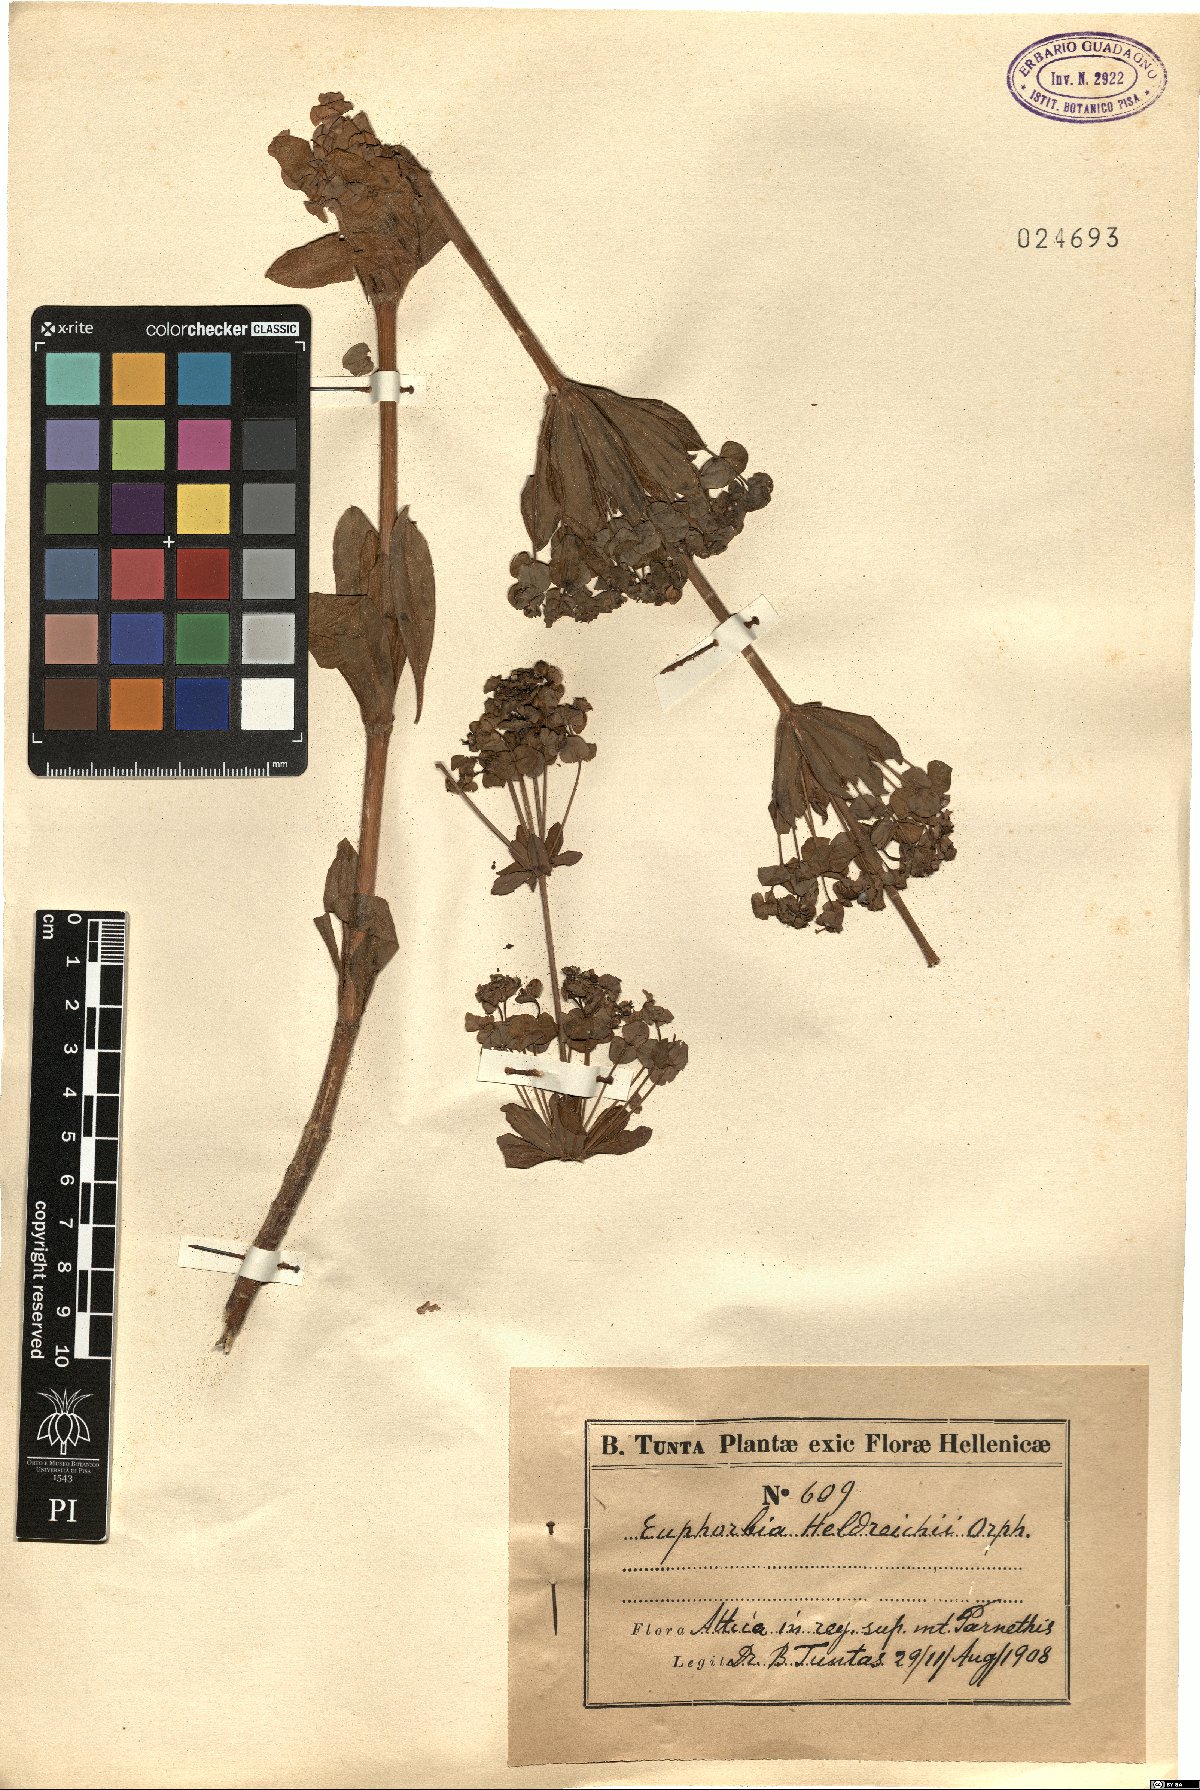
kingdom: Plantae
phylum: Tracheophyta
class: Magnoliopsida
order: Malpighiales
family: Euphorbiaceae
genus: Euphorbia
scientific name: Euphorbia heldreichii
